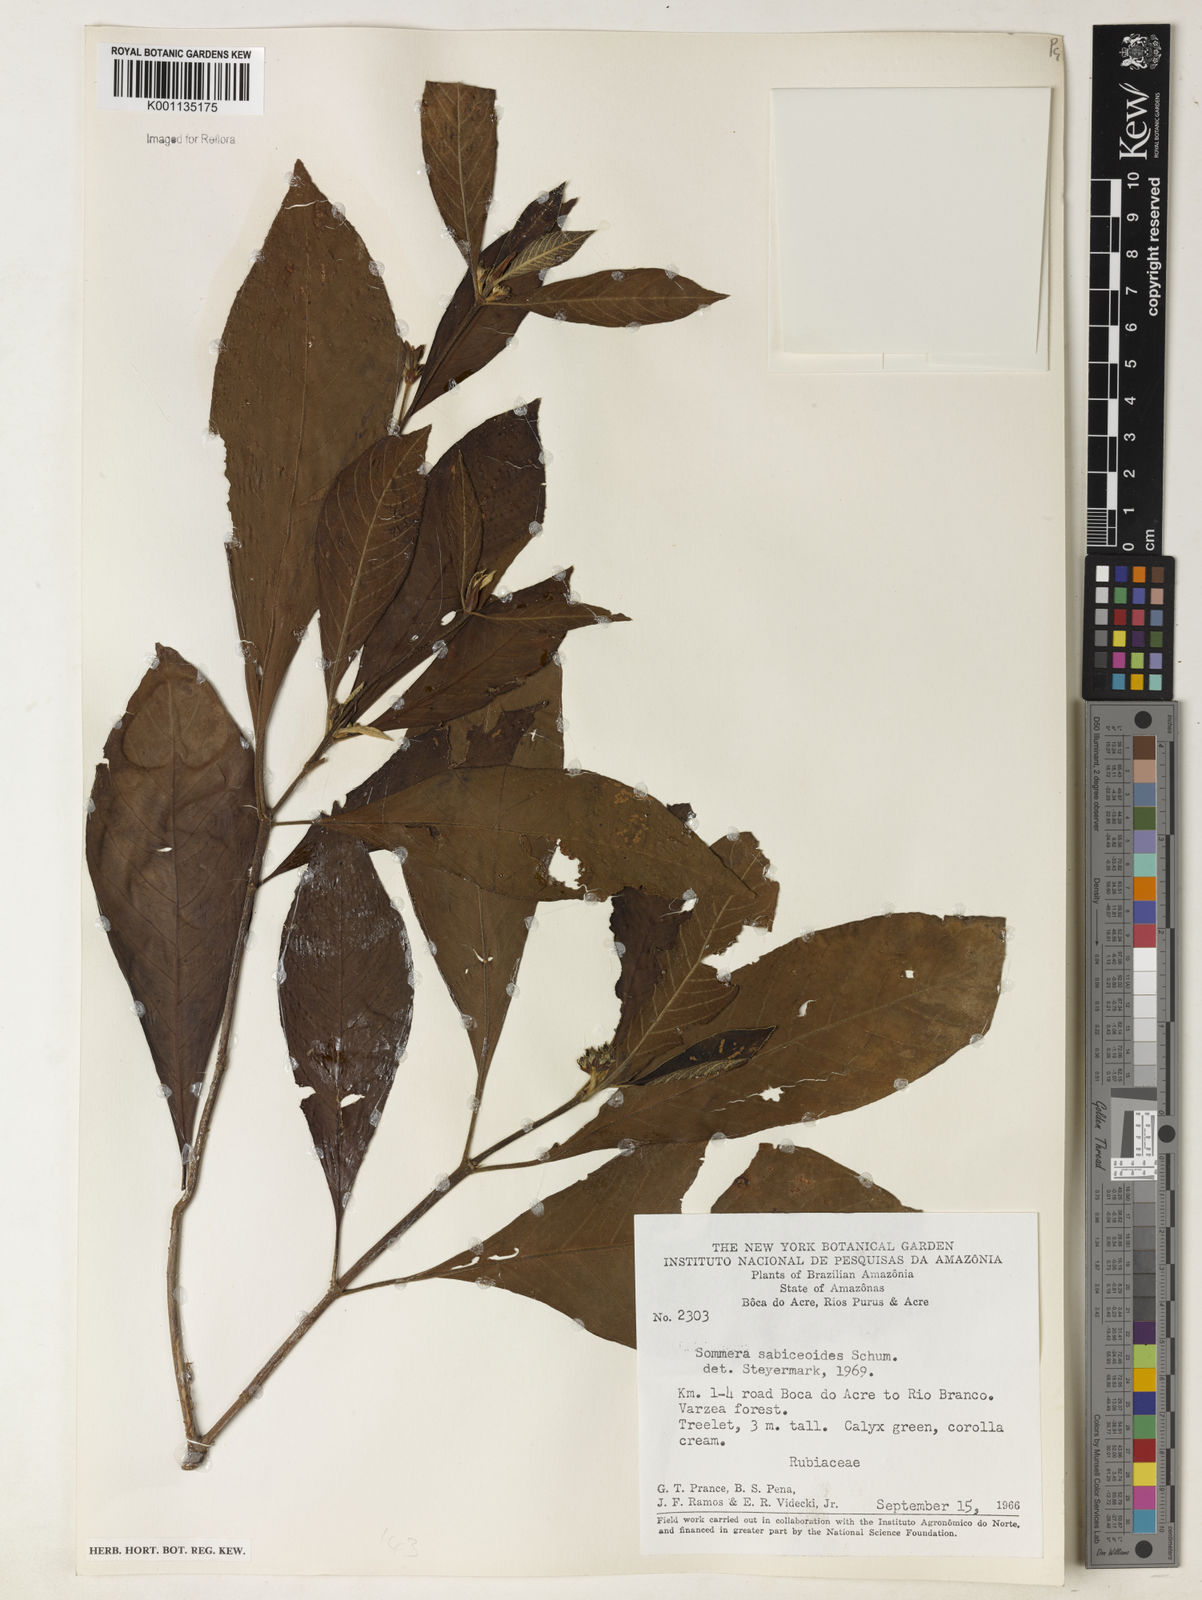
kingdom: Plantae
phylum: Tracheophyta
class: Magnoliopsida
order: Gentianales
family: Rubiaceae
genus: Sommera
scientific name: Sommera sabiceoides
